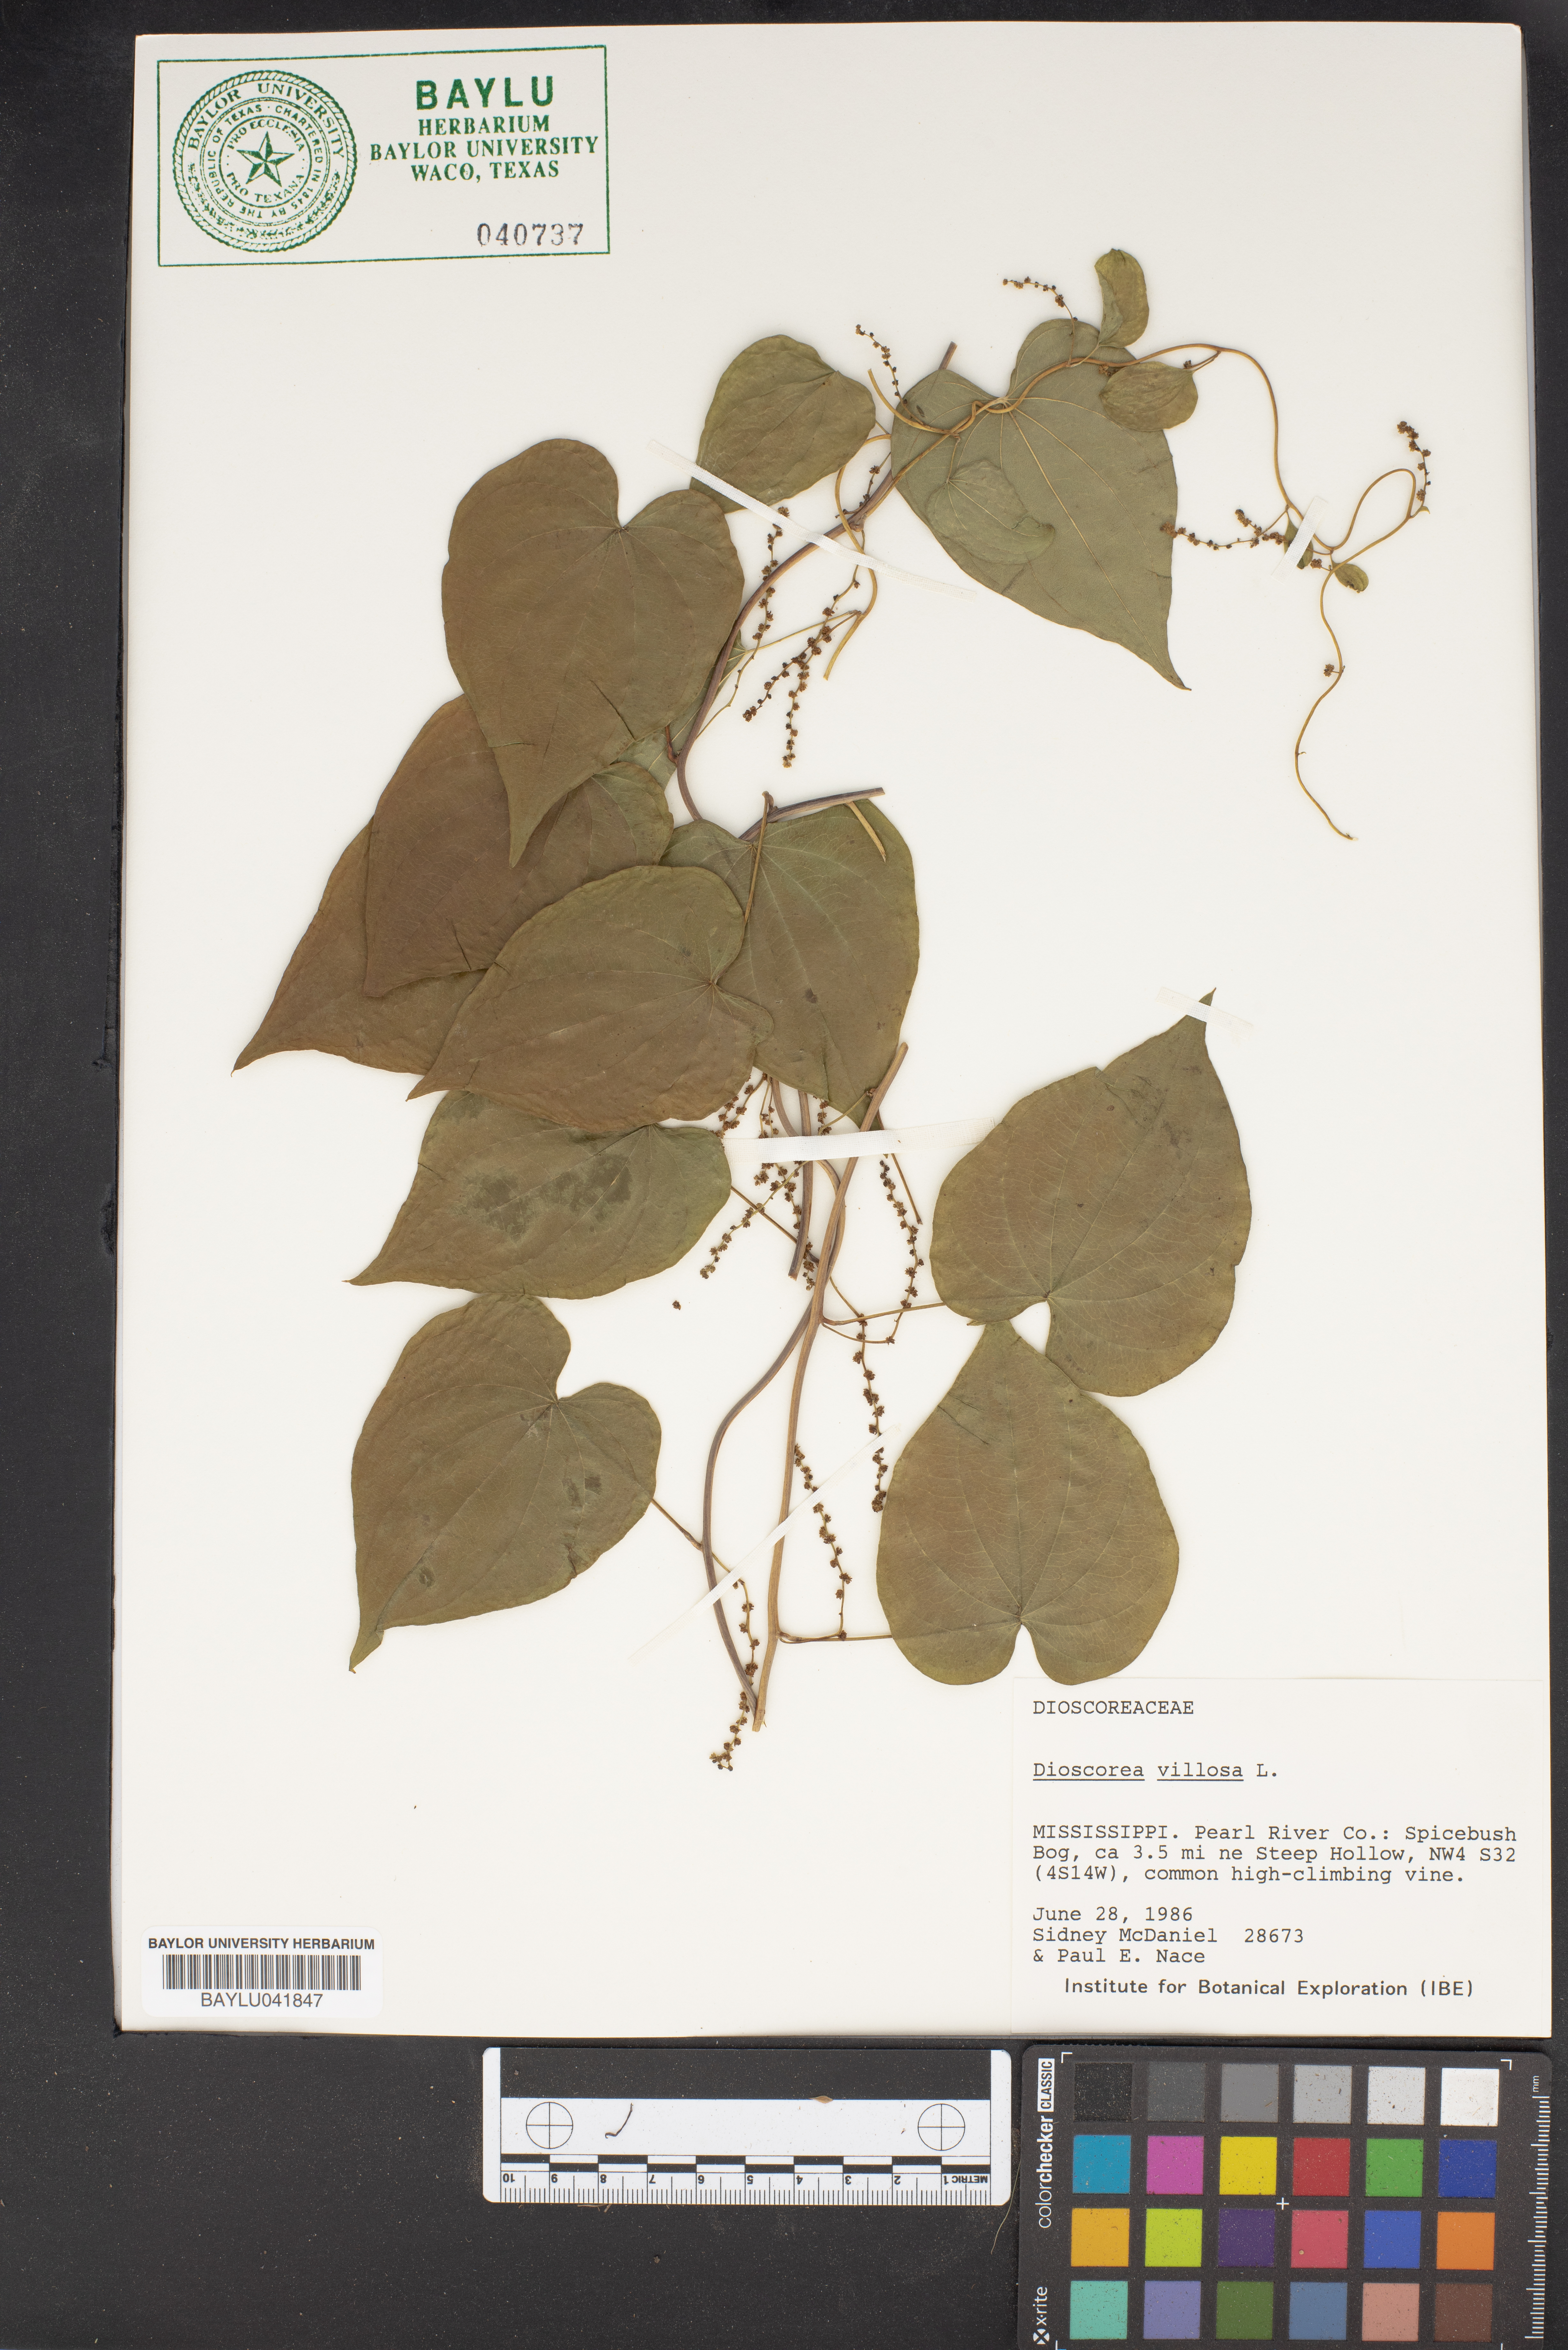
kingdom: Plantae
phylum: Tracheophyta
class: Liliopsida
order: Dioscoreales
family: Dioscoreaceae
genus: Dioscorea
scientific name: Dioscorea villosa
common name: Wild yam
